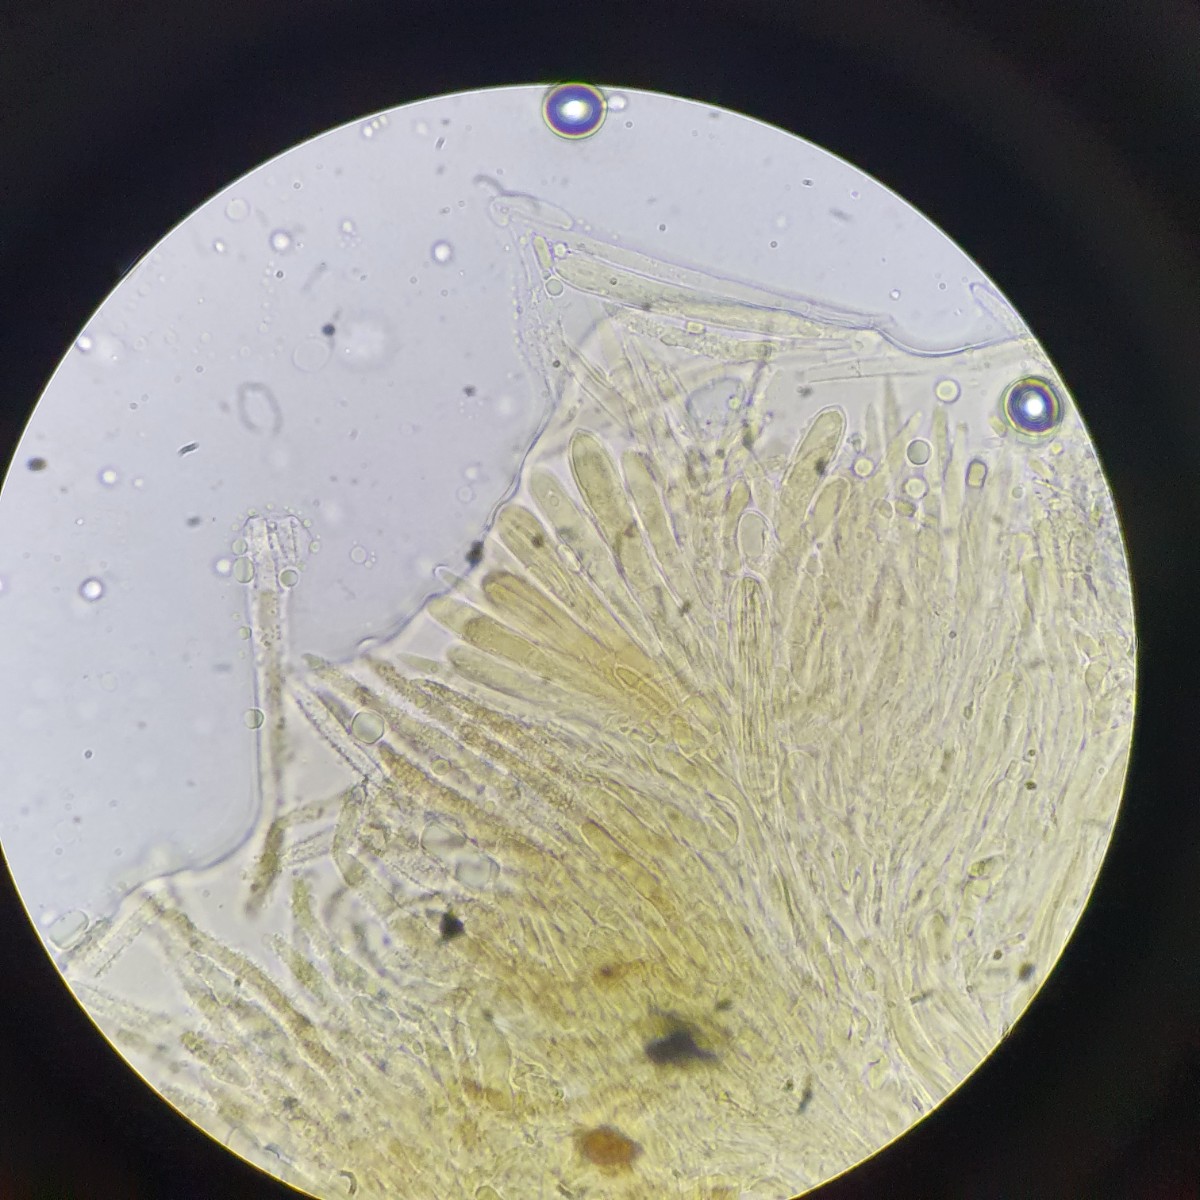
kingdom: Fungi
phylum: Ascomycota
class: Leotiomycetes
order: Helotiales
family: Lachnaceae
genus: Lachnum
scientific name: Lachnum apalum
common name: siv-frynseskive
